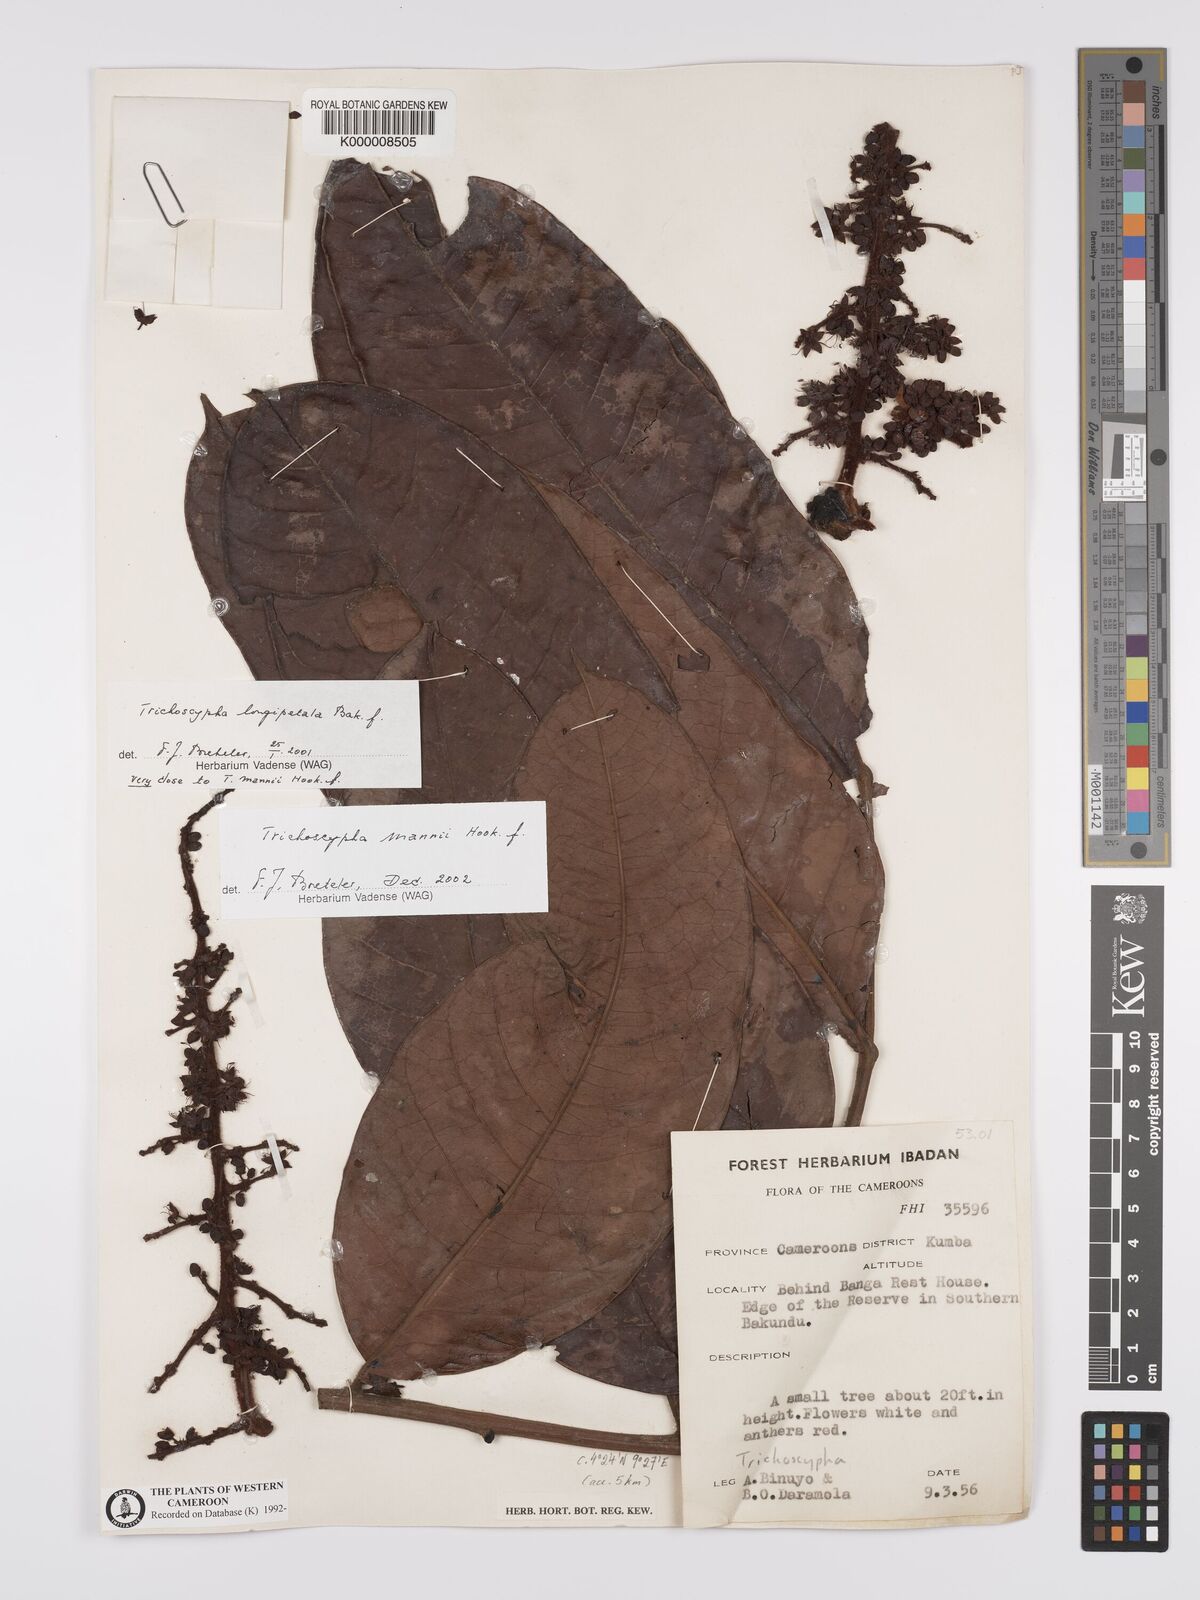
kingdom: Plantae
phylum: Tracheophyta
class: Magnoliopsida
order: Sapindales
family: Anacardiaceae
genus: Trichoscypha
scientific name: Trichoscypha mannii
